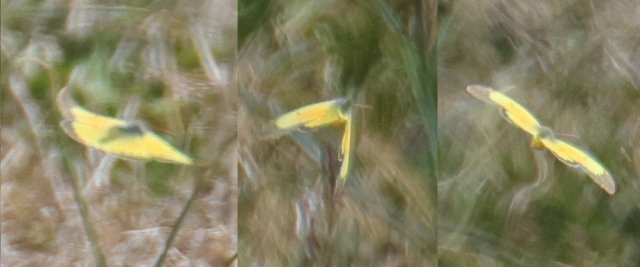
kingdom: Animalia
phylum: Arthropoda
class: Insecta
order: Lepidoptera
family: Pieridae
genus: Colias
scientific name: Colias eurytheme
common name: Orange Sulphur
